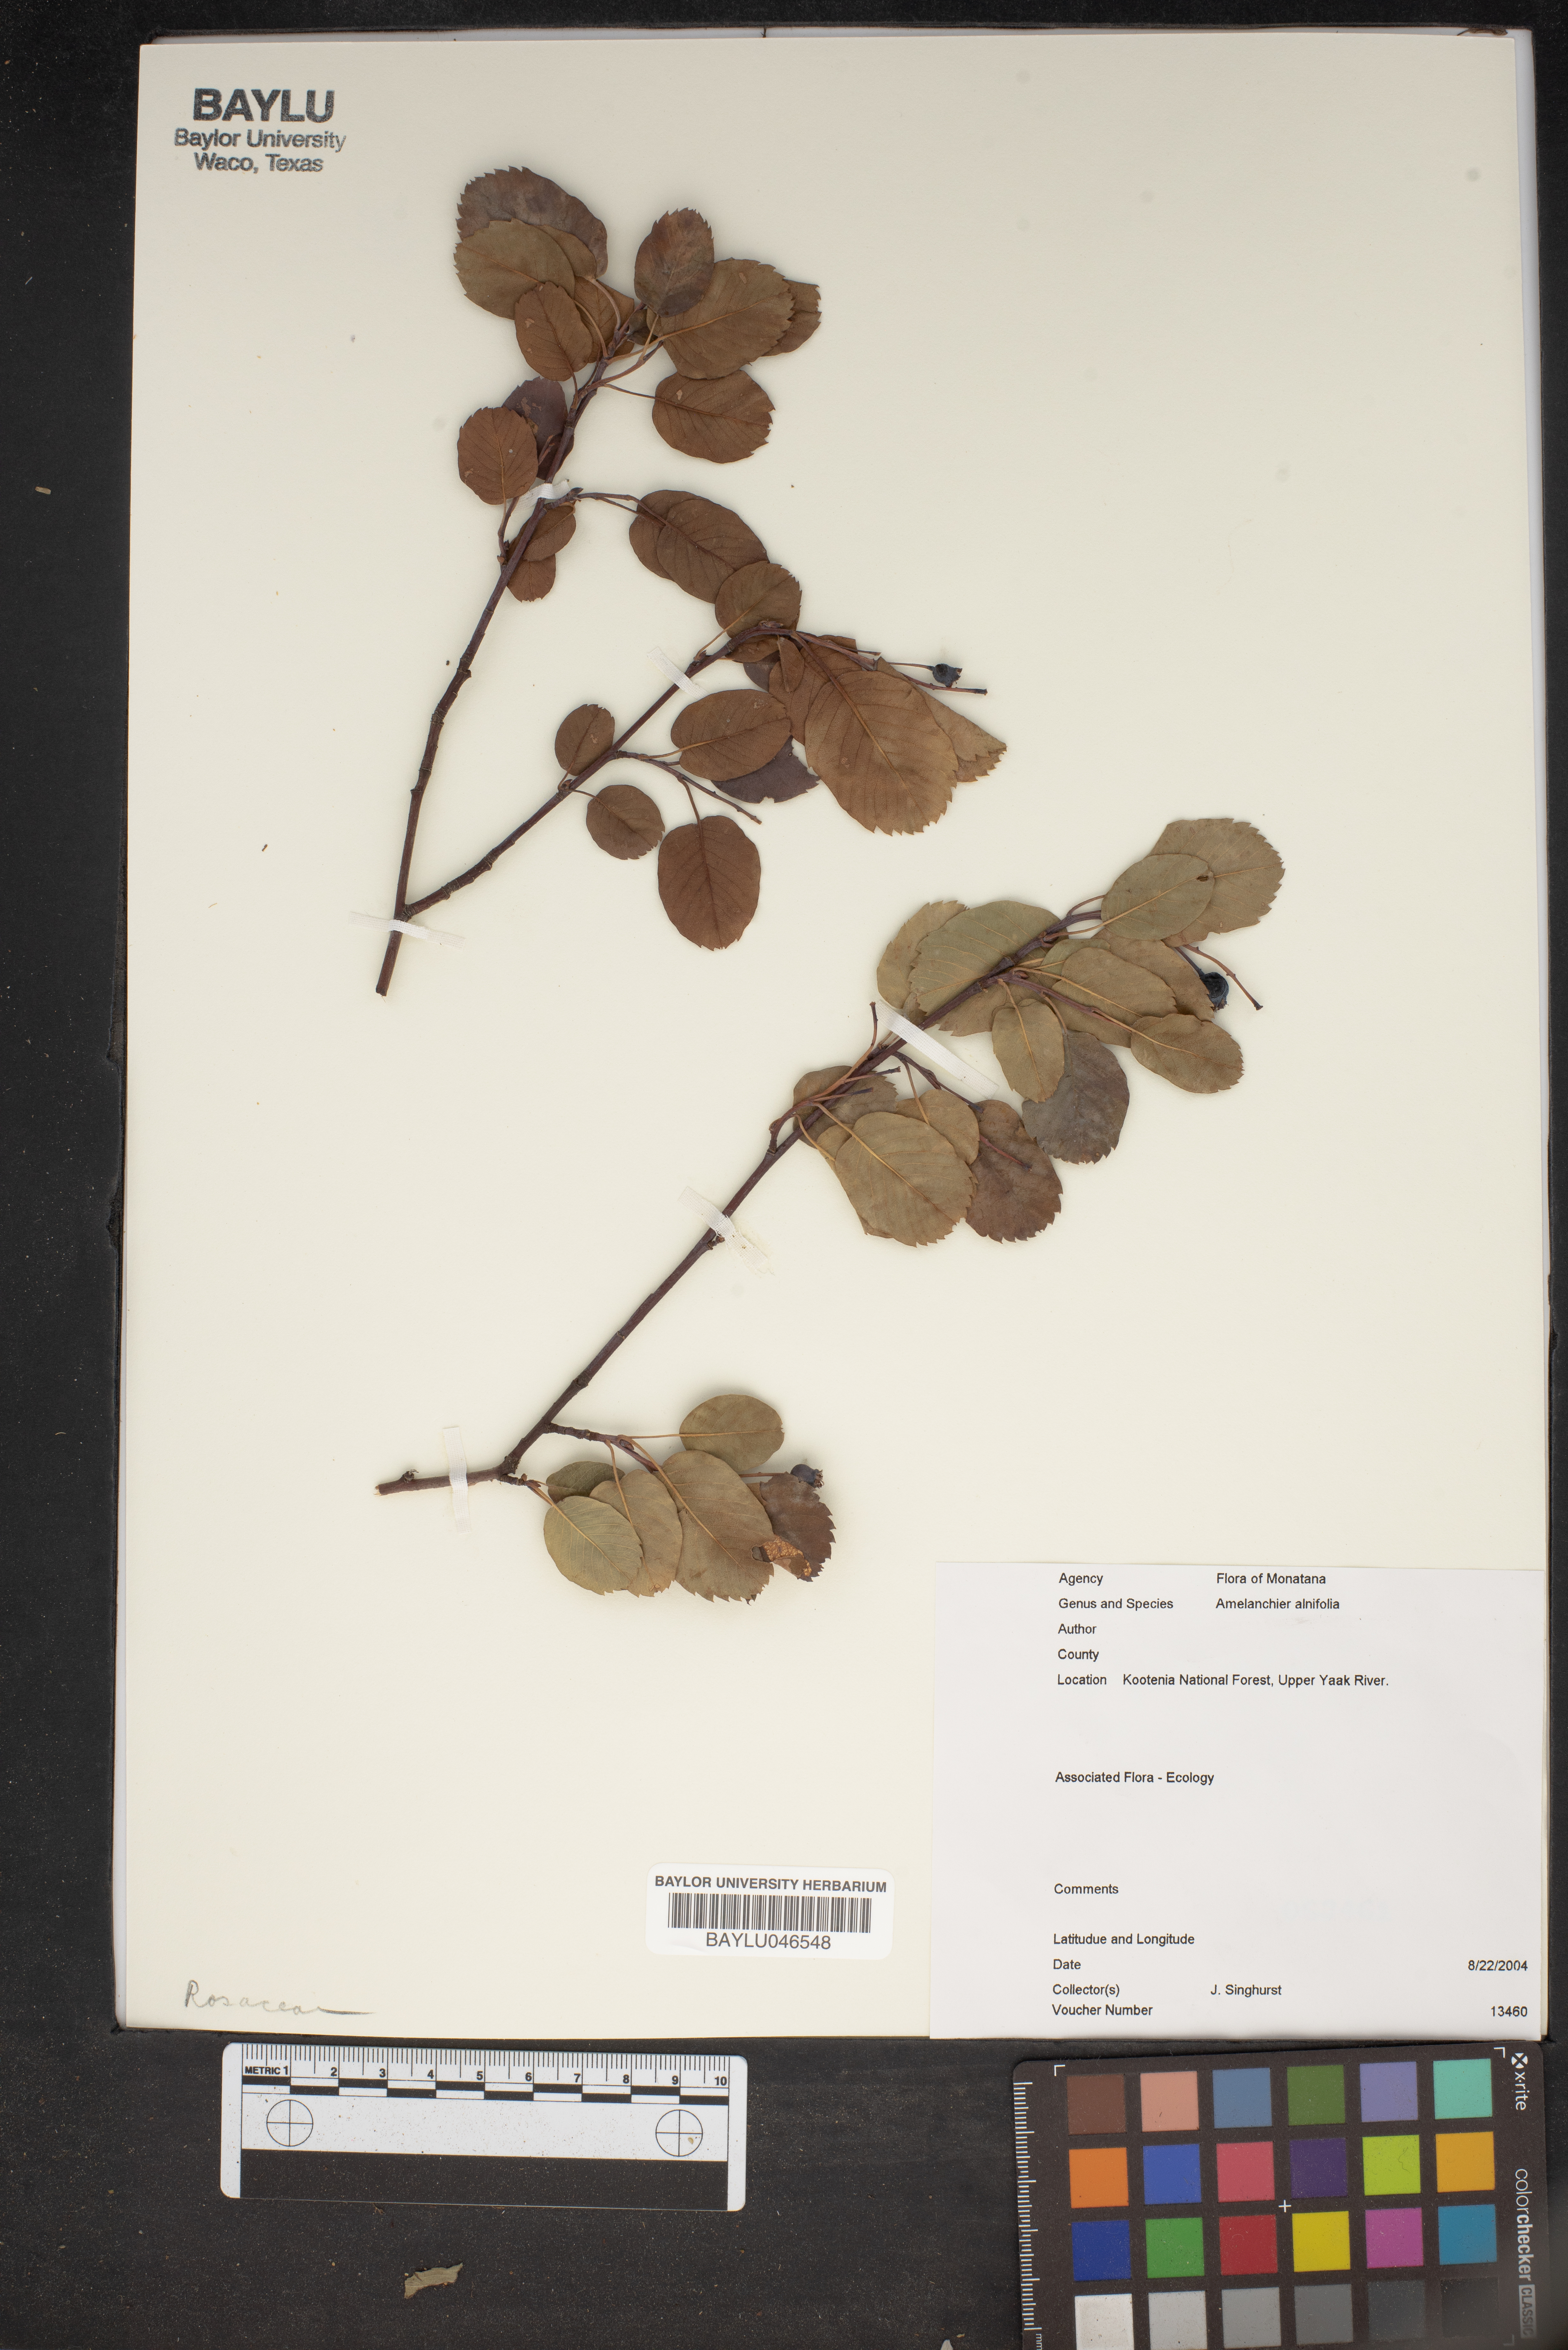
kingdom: Plantae
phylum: Tracheophyta
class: Magnoliopsida
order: Rosales
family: Rosaceae
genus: Amelanchier
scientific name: Amelanchier alnifolia
